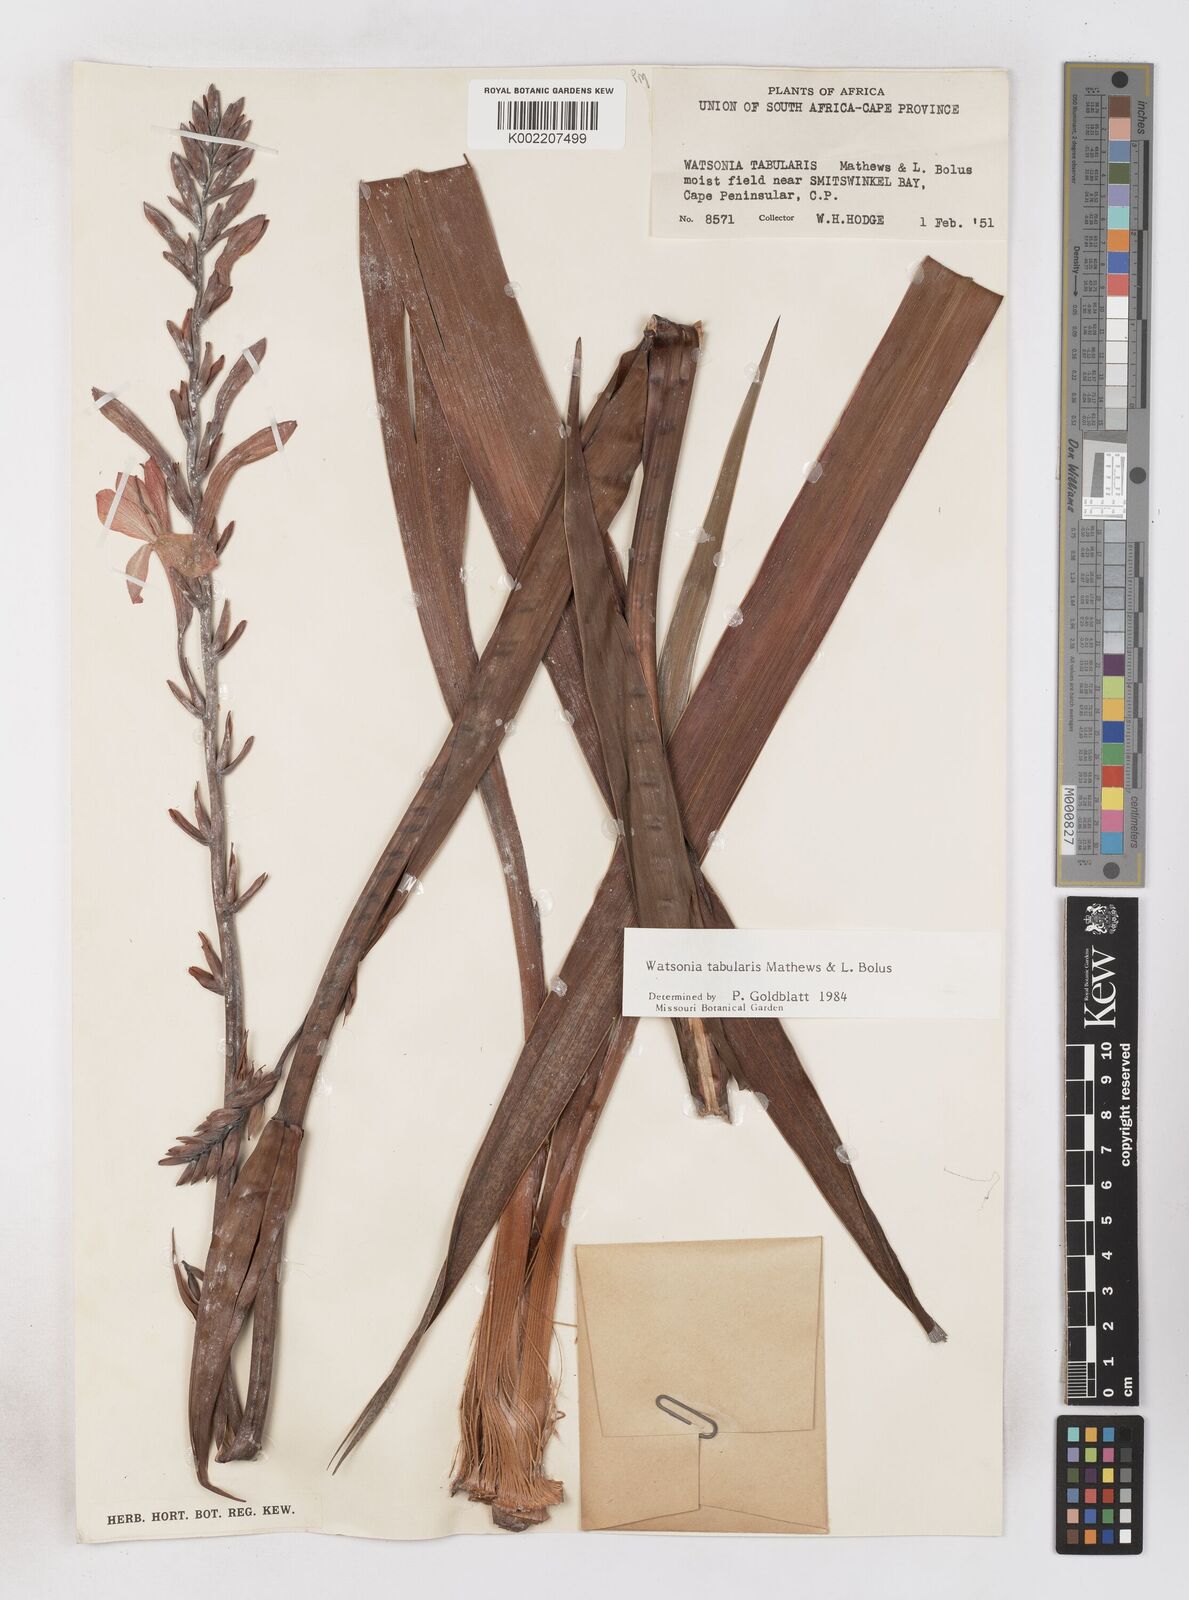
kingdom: Plantae
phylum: Tracheophyta
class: Liliopsida
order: Asparagales
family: Iridaceae
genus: Watsonia
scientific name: Watsonia tabularis
